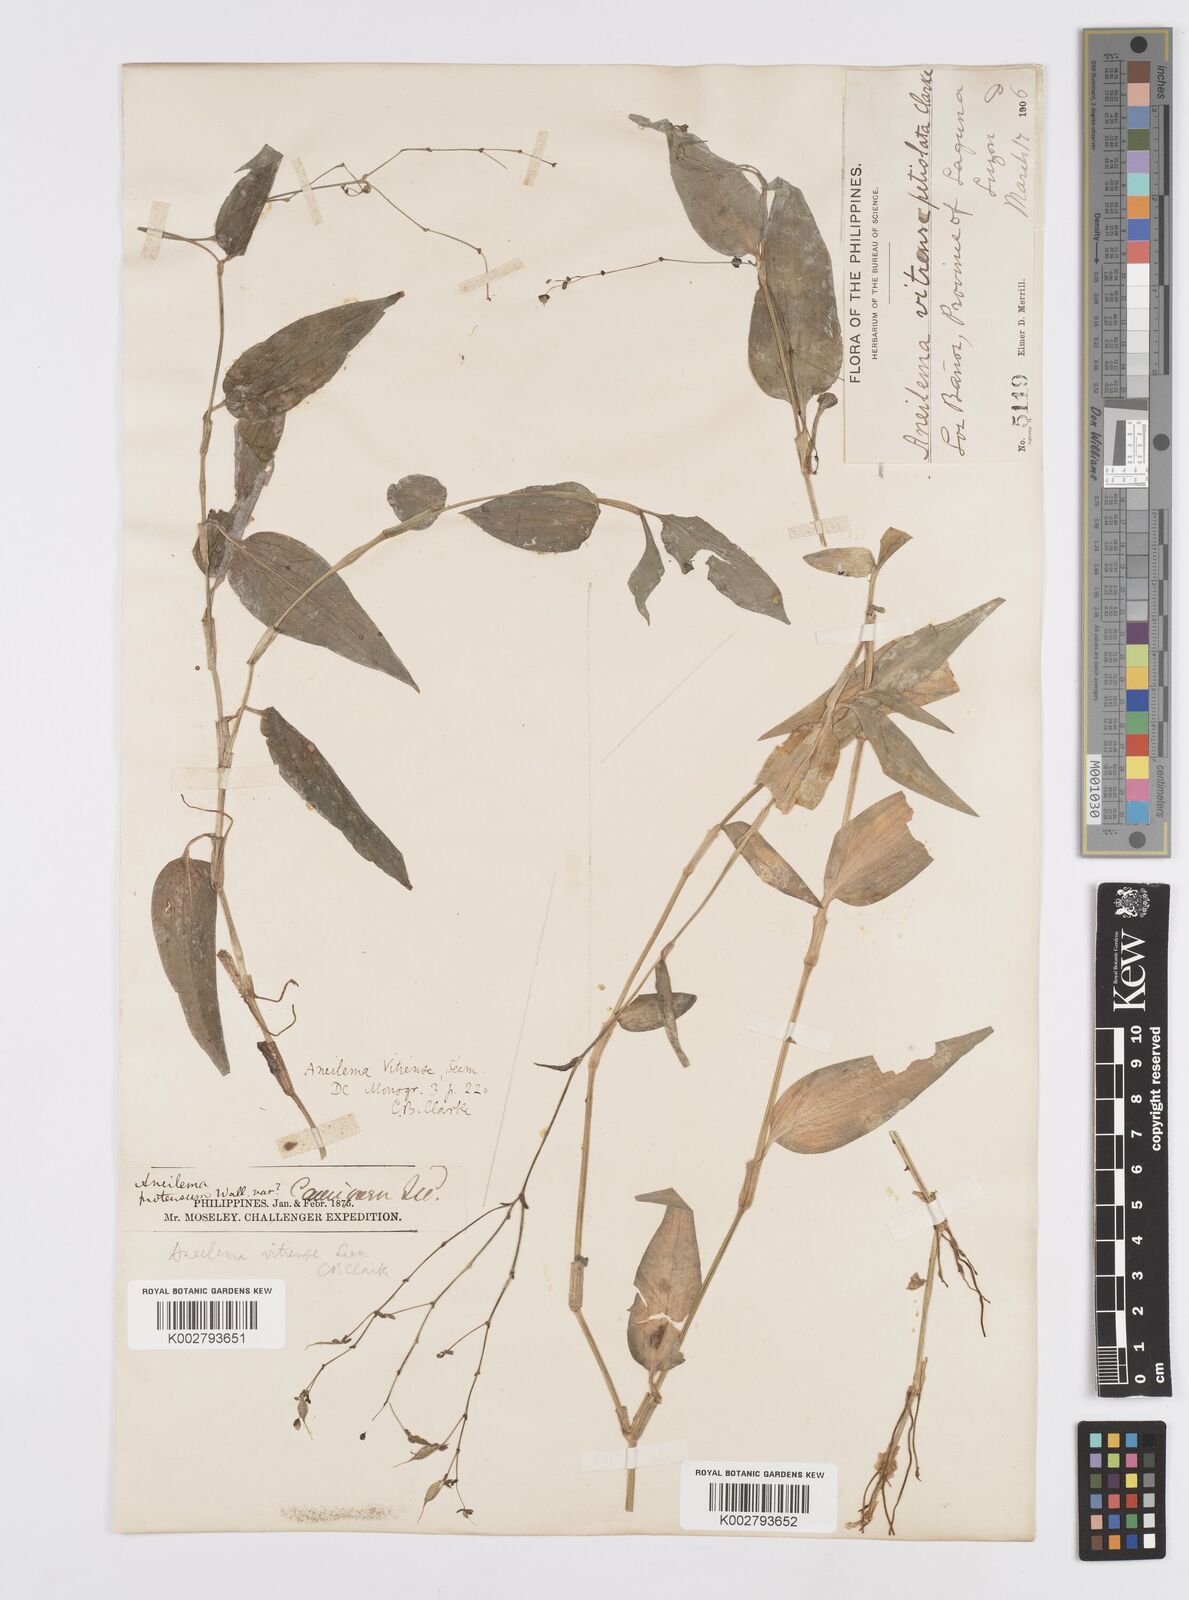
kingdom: Plantae
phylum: Tracheophyta
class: Liliopsida
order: Commelinales
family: Commelinaceae
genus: Murdannia
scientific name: Murdannia
